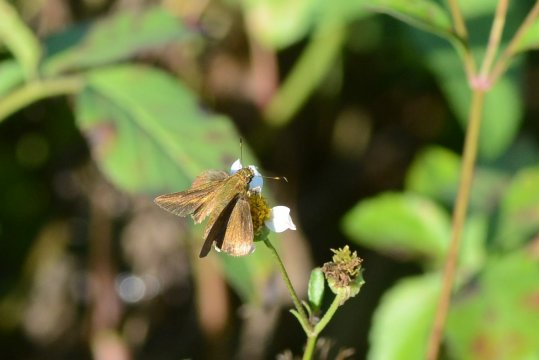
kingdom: Animalia
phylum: Arthropoda
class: Insecta
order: Lepidoptera
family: Hesperiidae
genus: Nastra
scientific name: Nastra lherminier
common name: Swarthy Skipper
